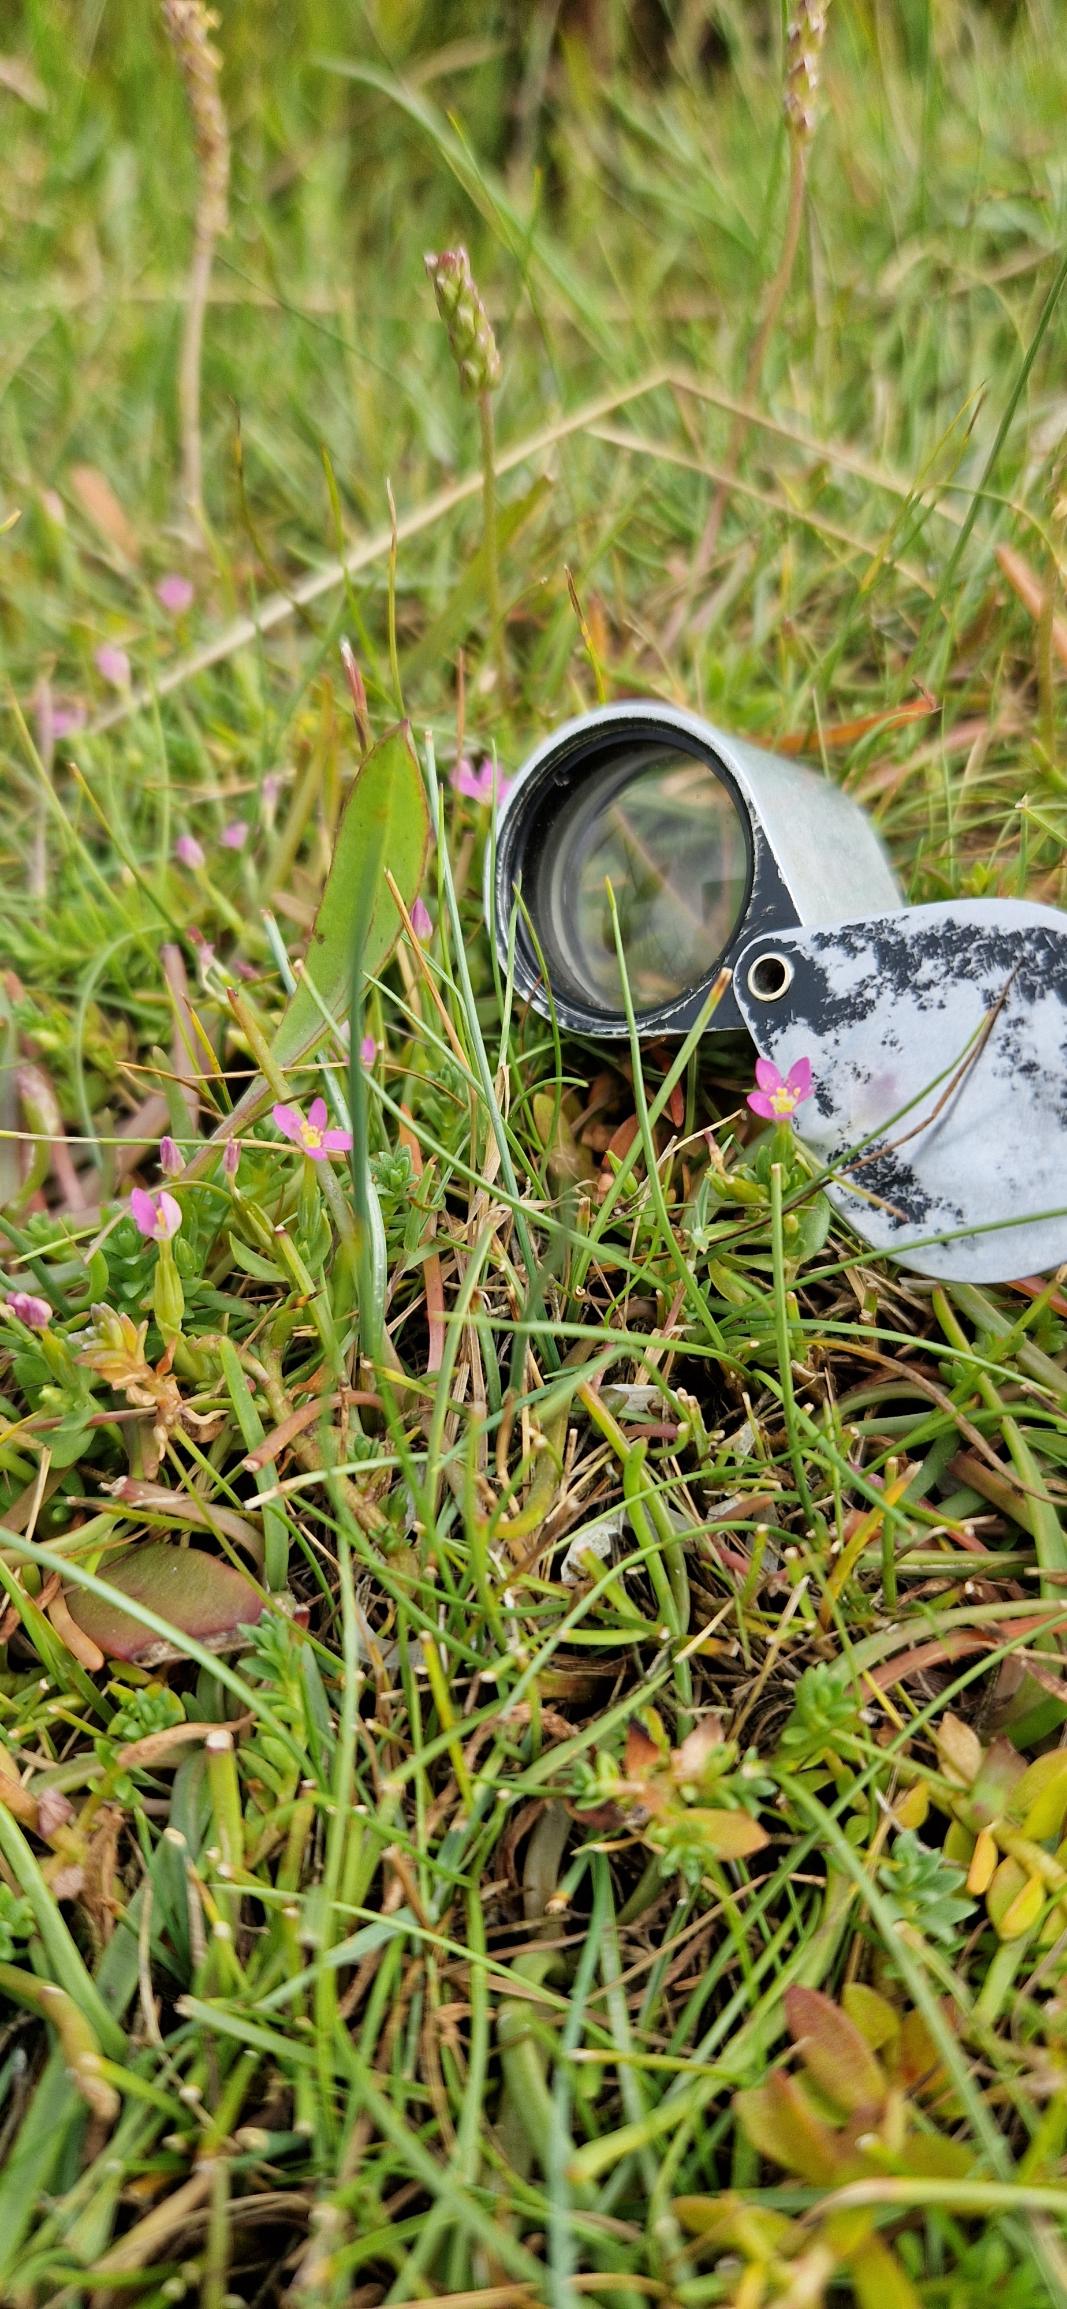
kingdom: Plantae
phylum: Tracheophyta
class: Magnoliopsida
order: Gentianales
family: Gentianaceae
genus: Centaurium
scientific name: Centaurium pulchellum
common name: Liden tusindgylden
